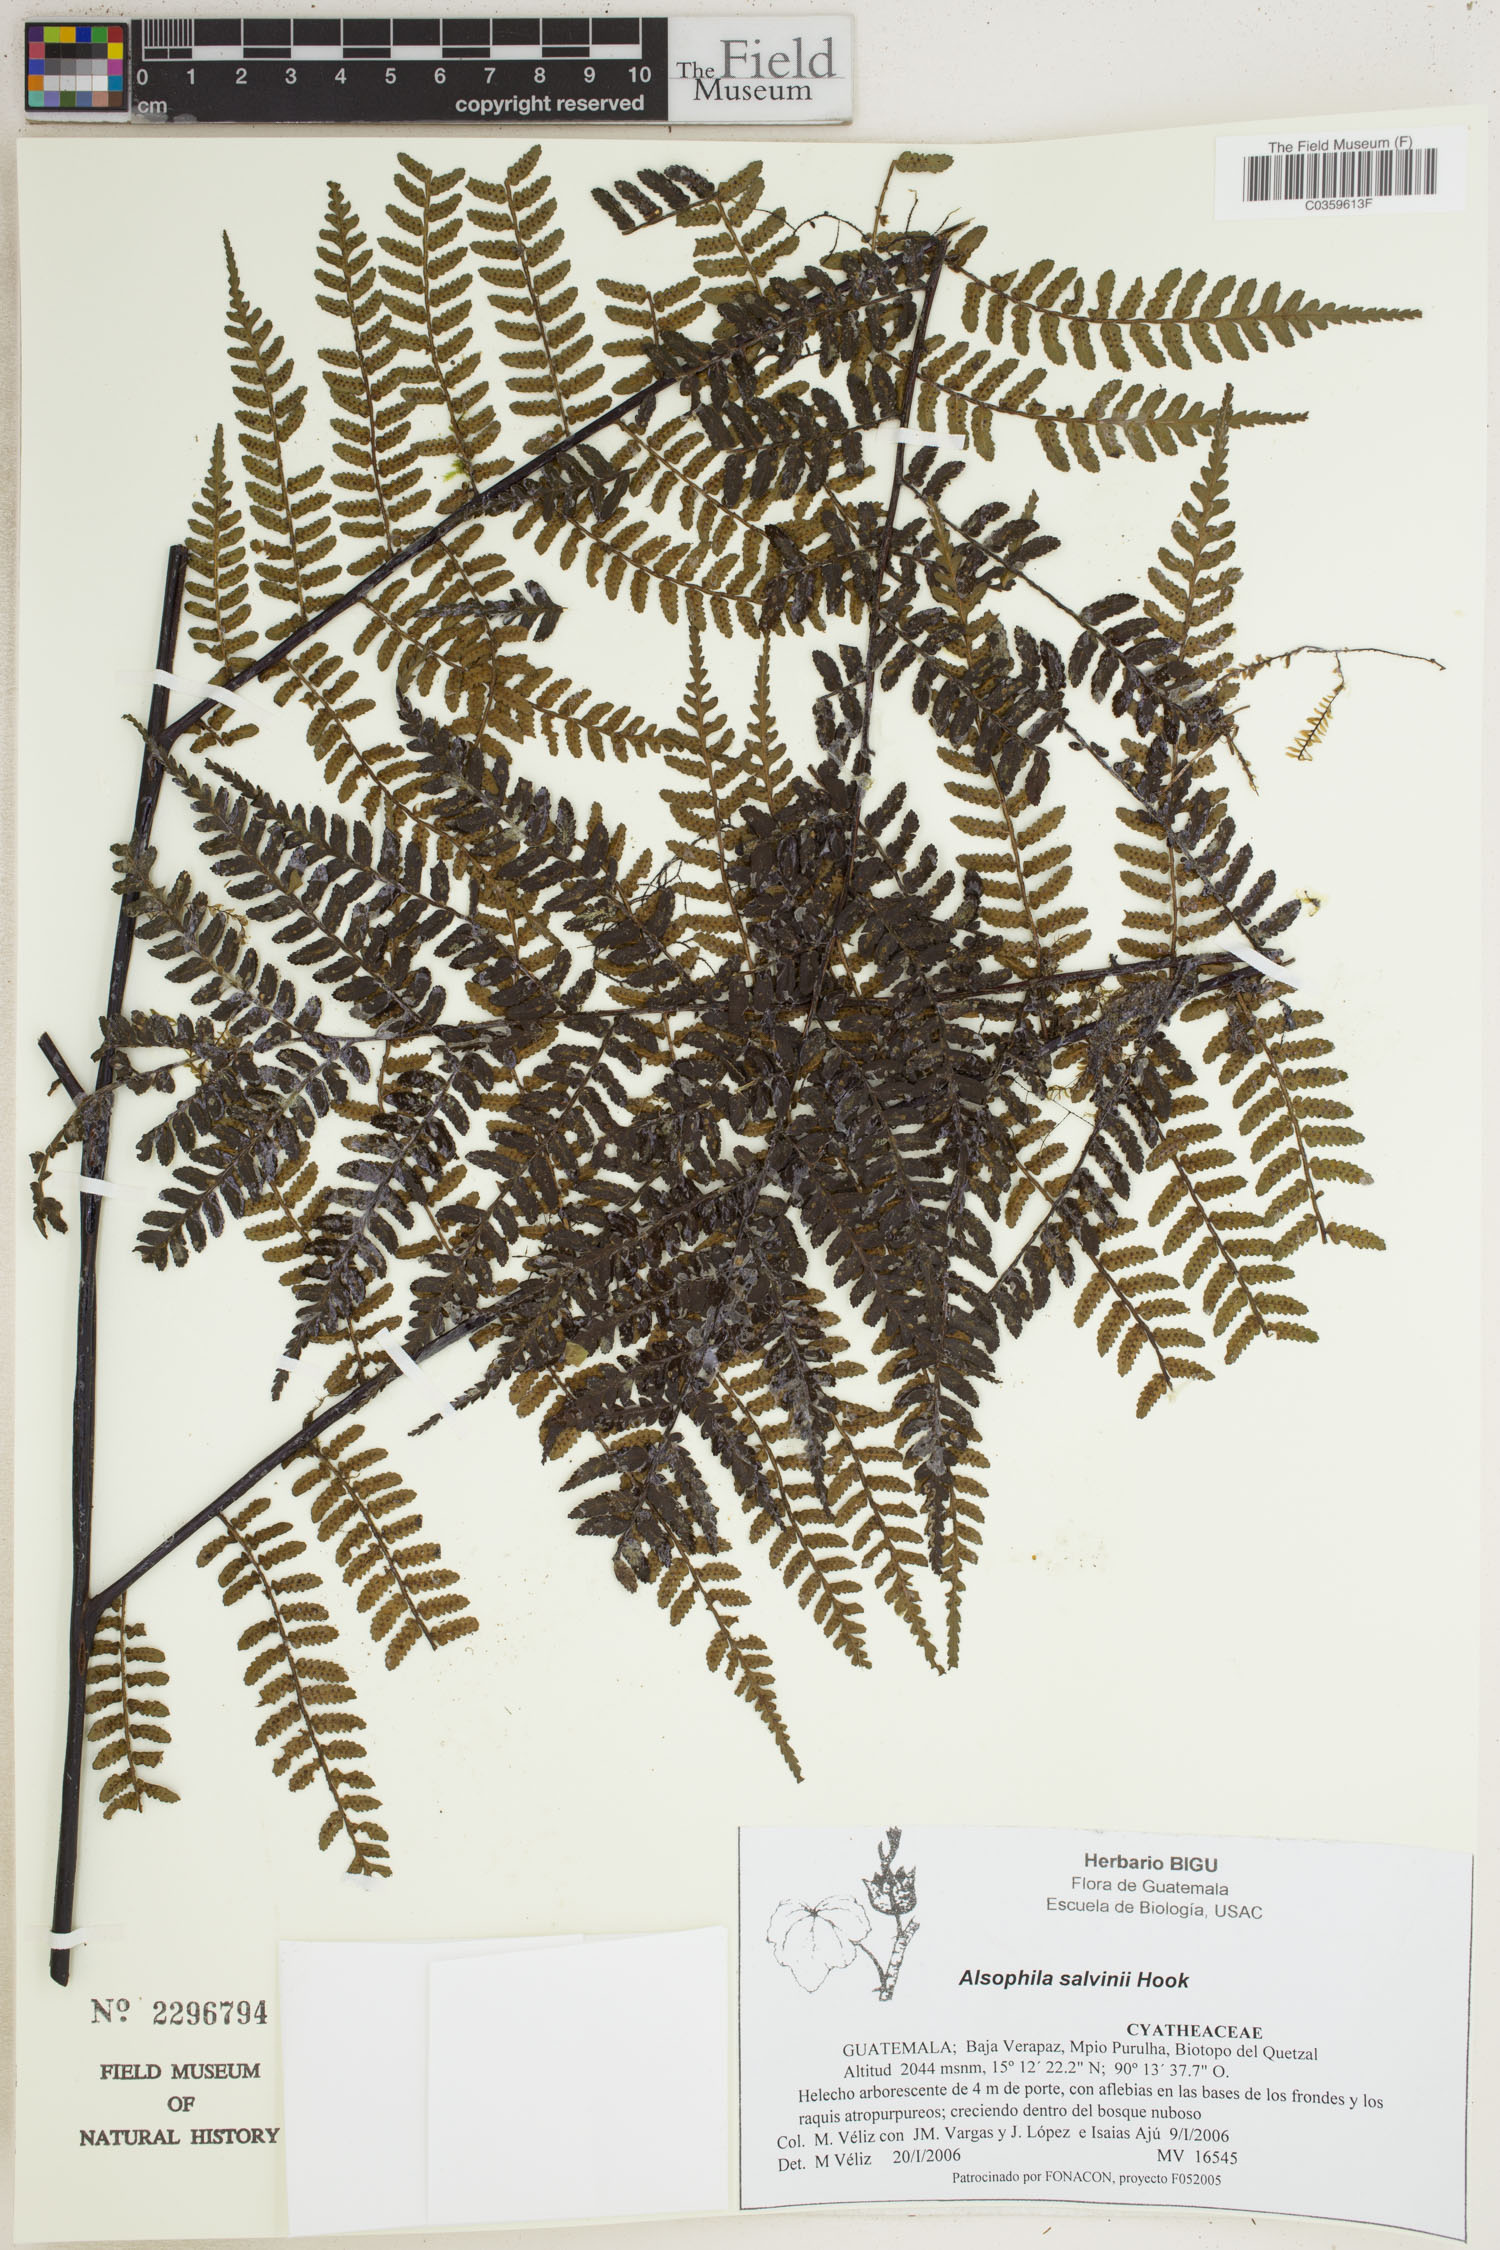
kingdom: Plantae
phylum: Tracheophyta
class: Polypodiopsida
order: Cyatheales
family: Cyatheaceae
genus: Gymnosphaera
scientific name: Gymnosphaera salvinii
